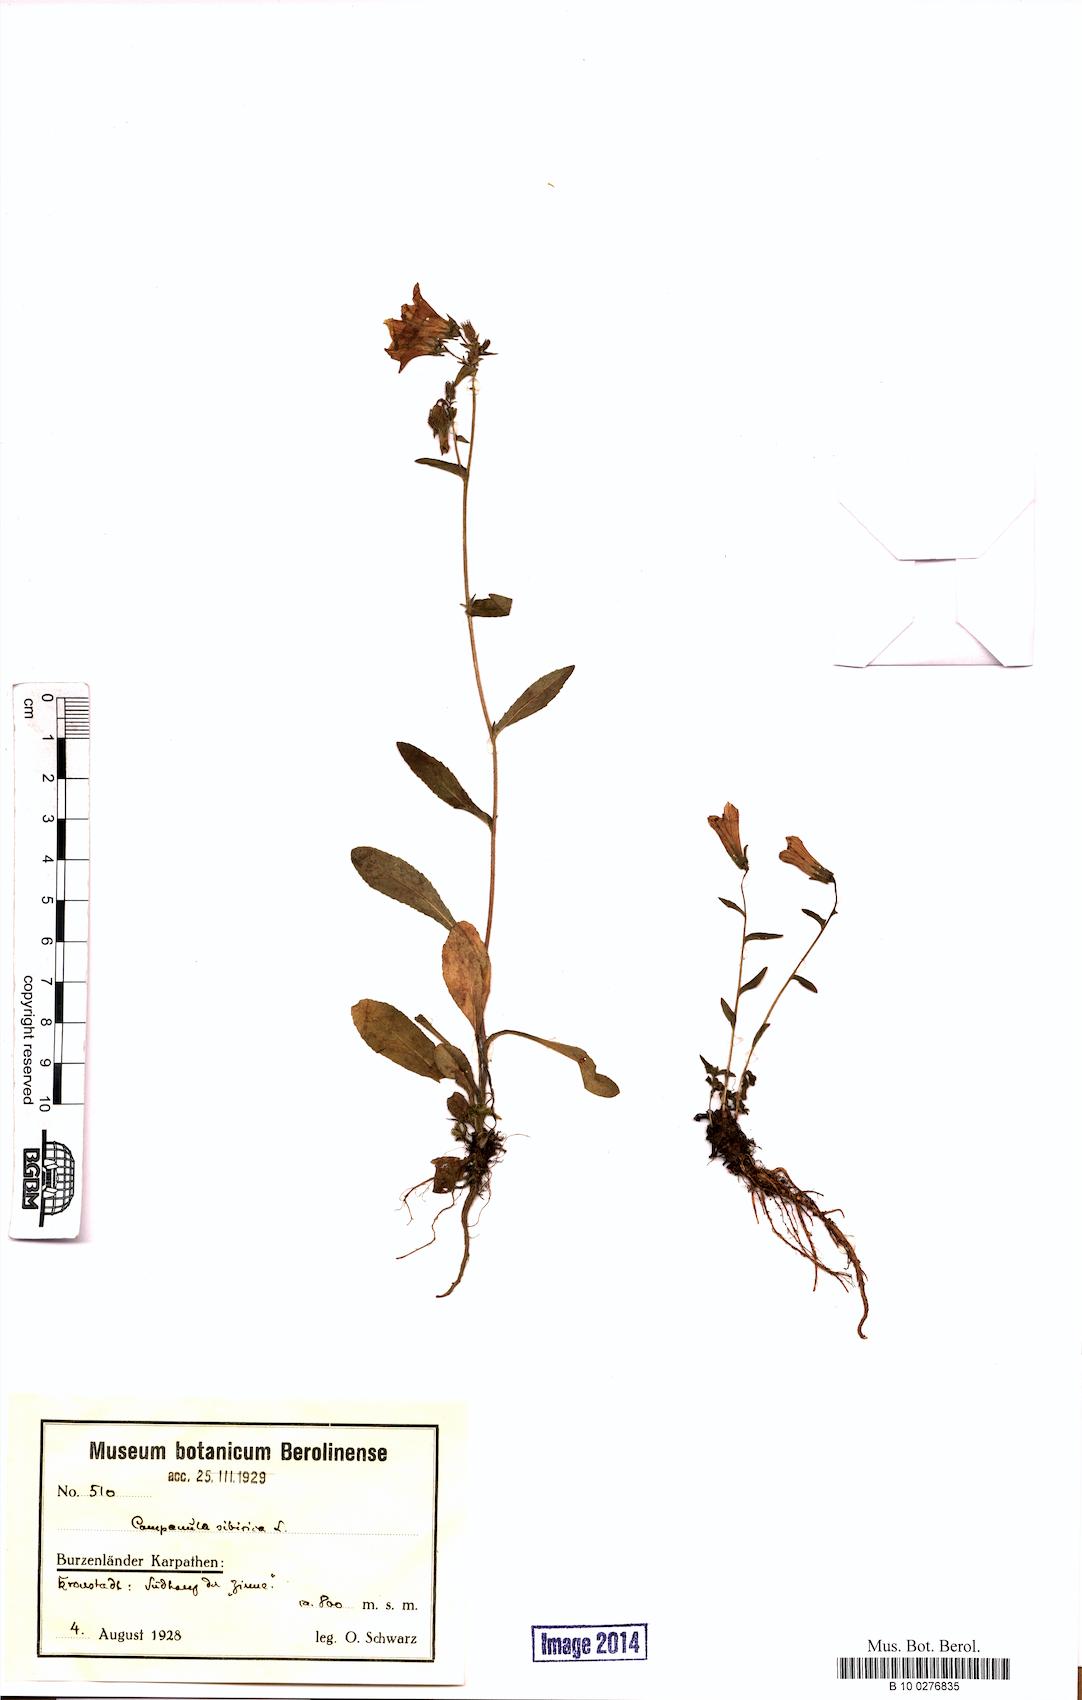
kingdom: Plantae
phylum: Tracheophyta
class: Magnoliopsida
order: Asterales
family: Campanulaceae
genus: Campanula
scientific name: Campanula sibirica
